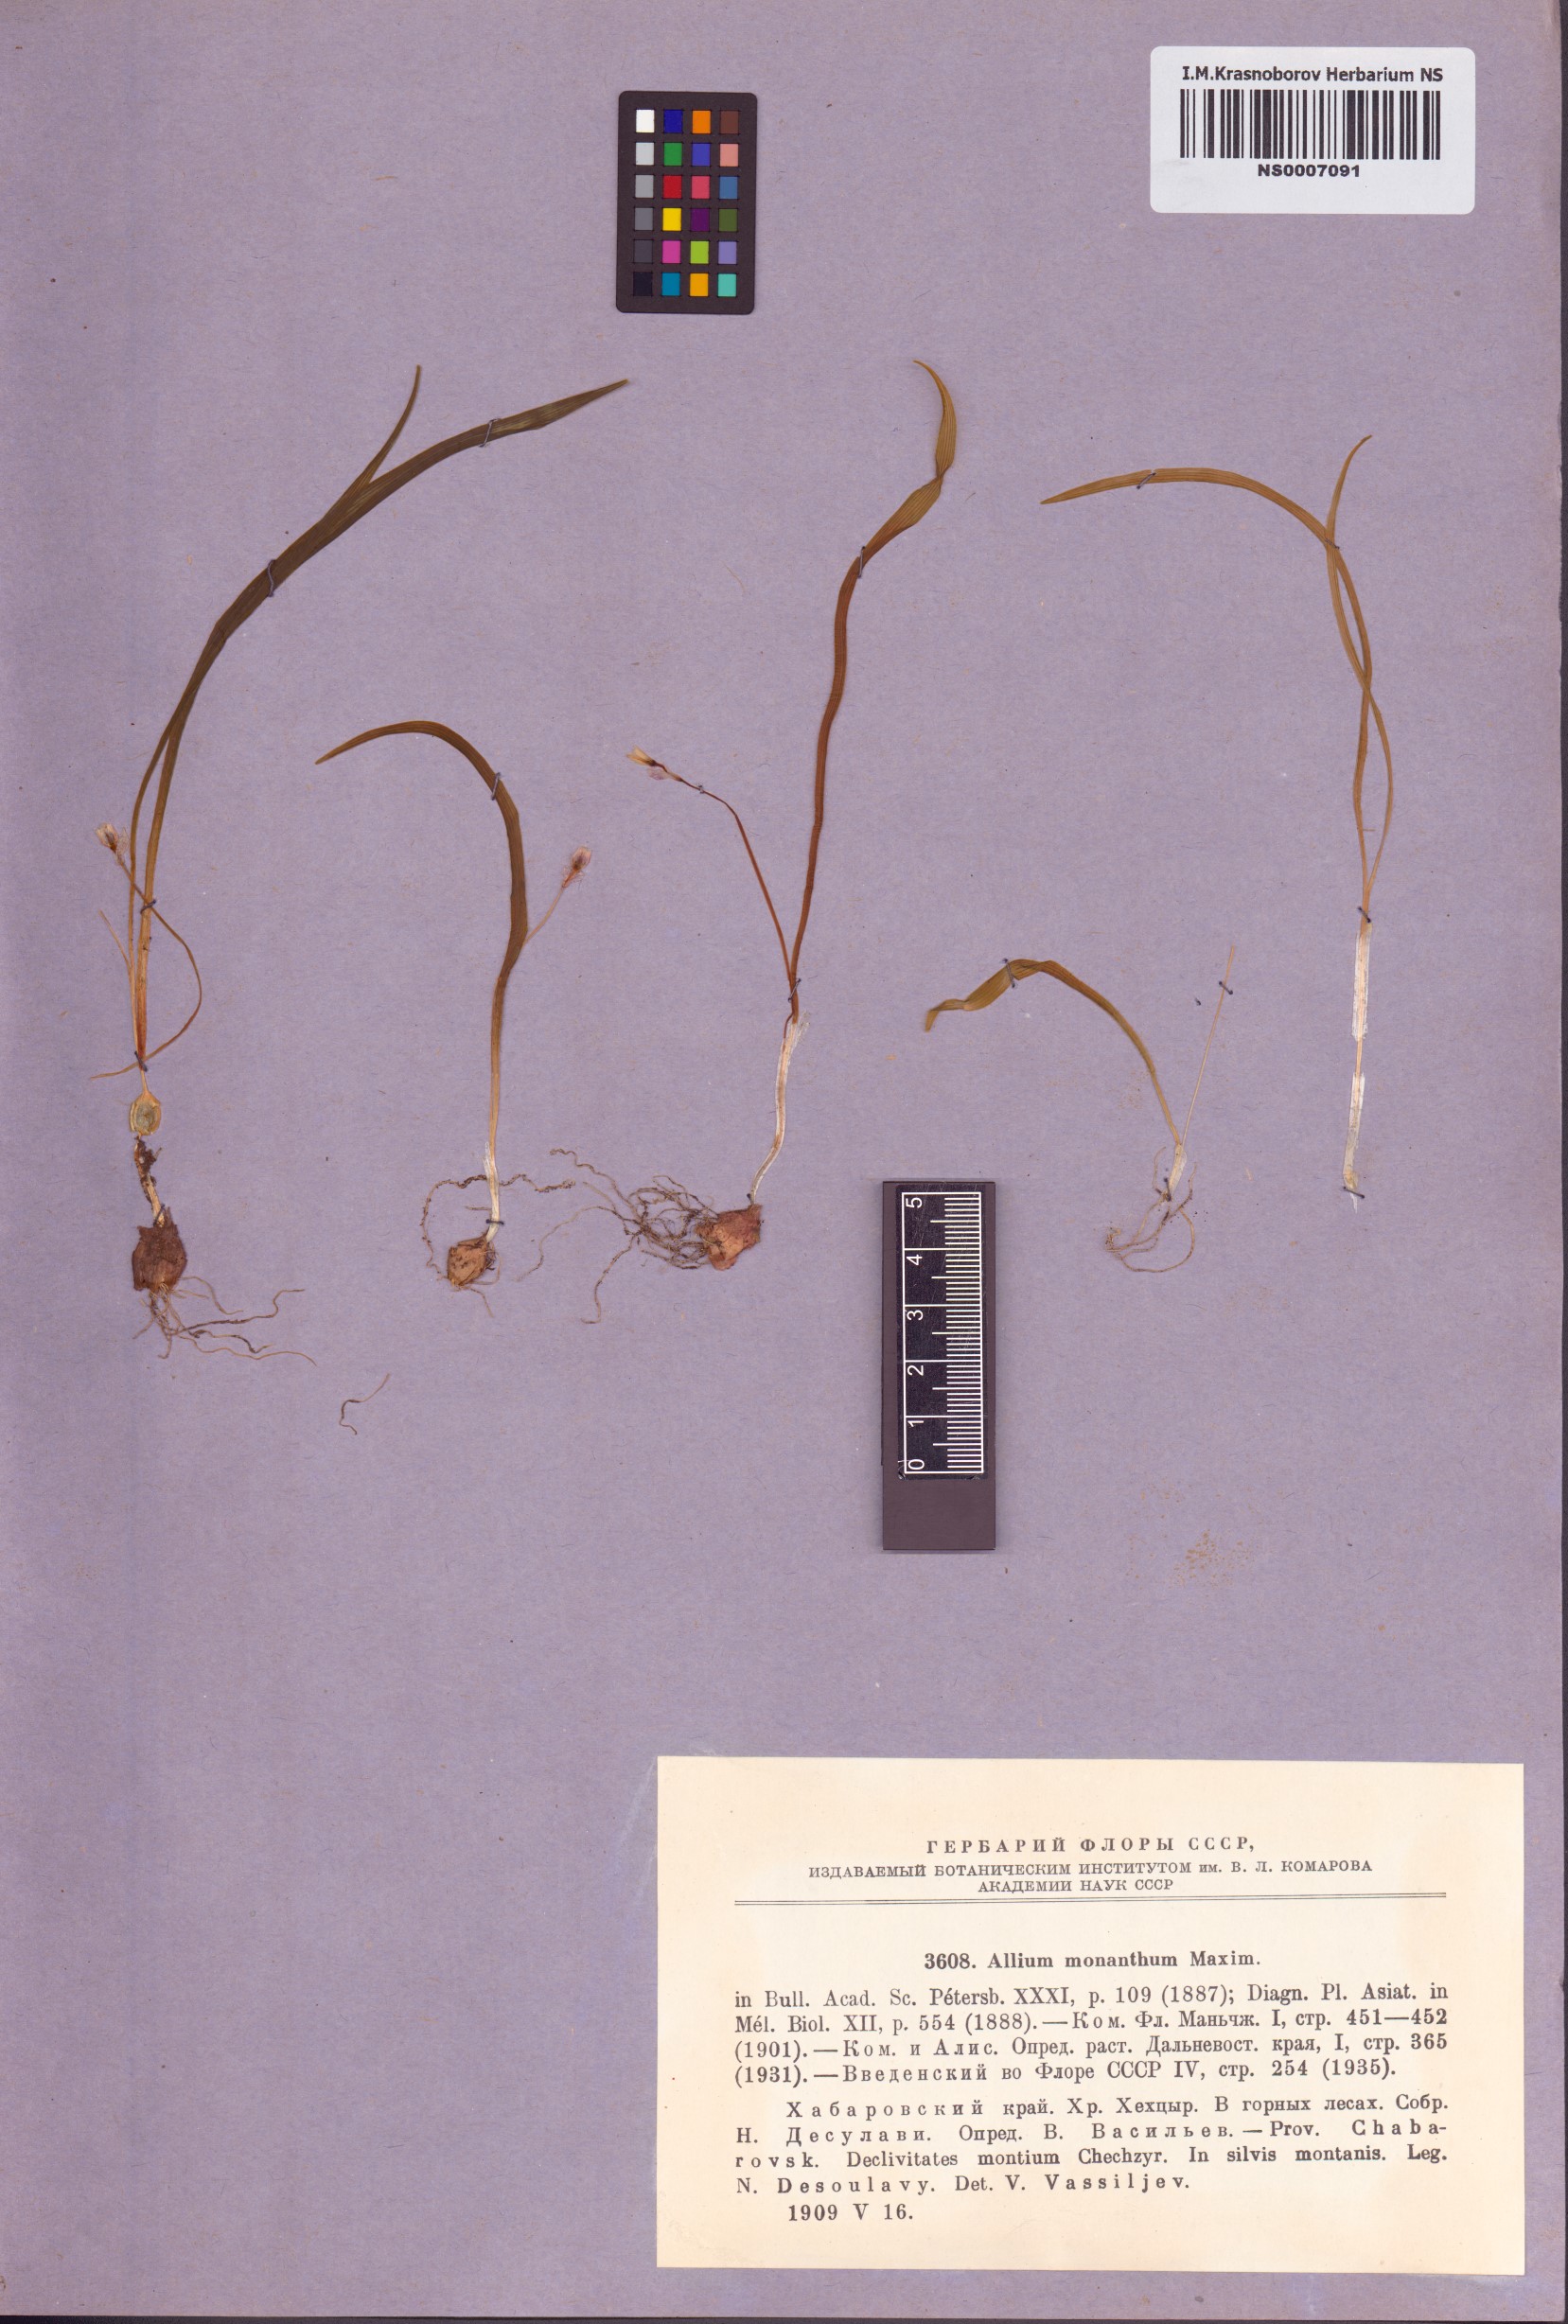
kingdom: Plantae
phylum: Tracheophyta
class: Liliopsida
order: Asparagales
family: Amaryllidaceae
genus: Allium
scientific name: Allium monanthum
